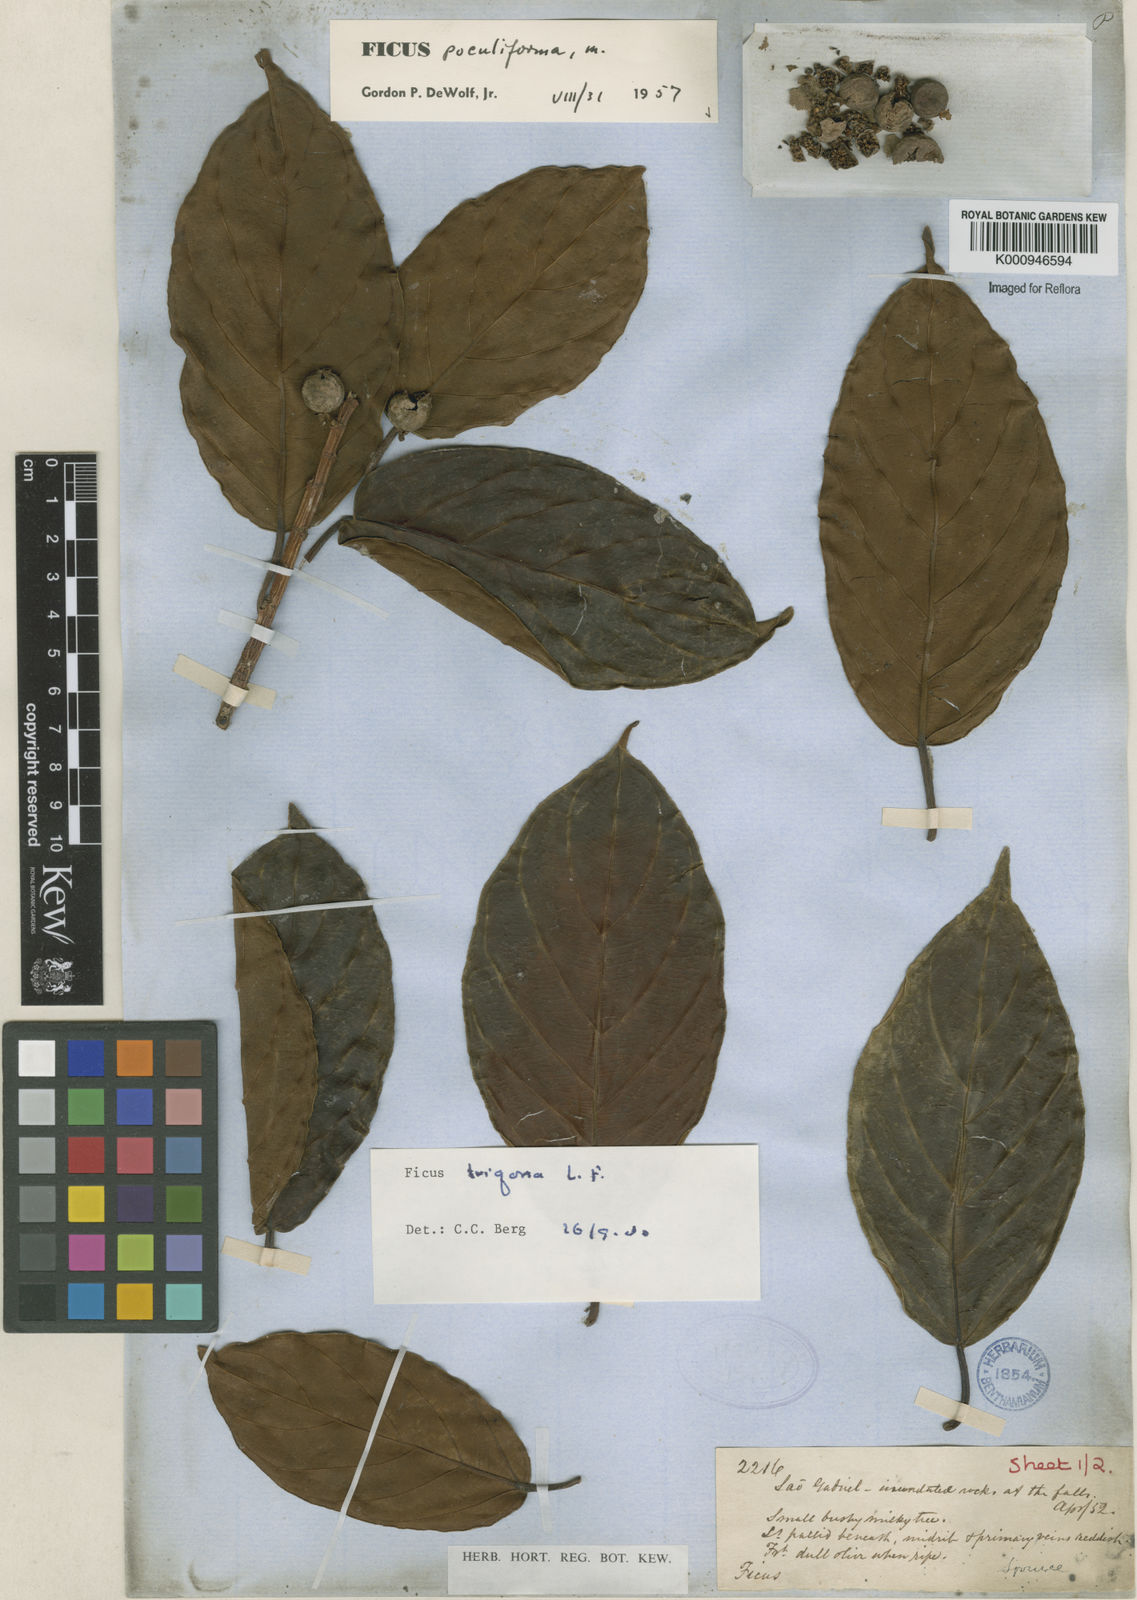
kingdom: Plantae
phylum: Tracheophyta
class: Magnoliopsida
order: Rosales
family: Moraceae
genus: Ficus
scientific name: Ficus trigona
